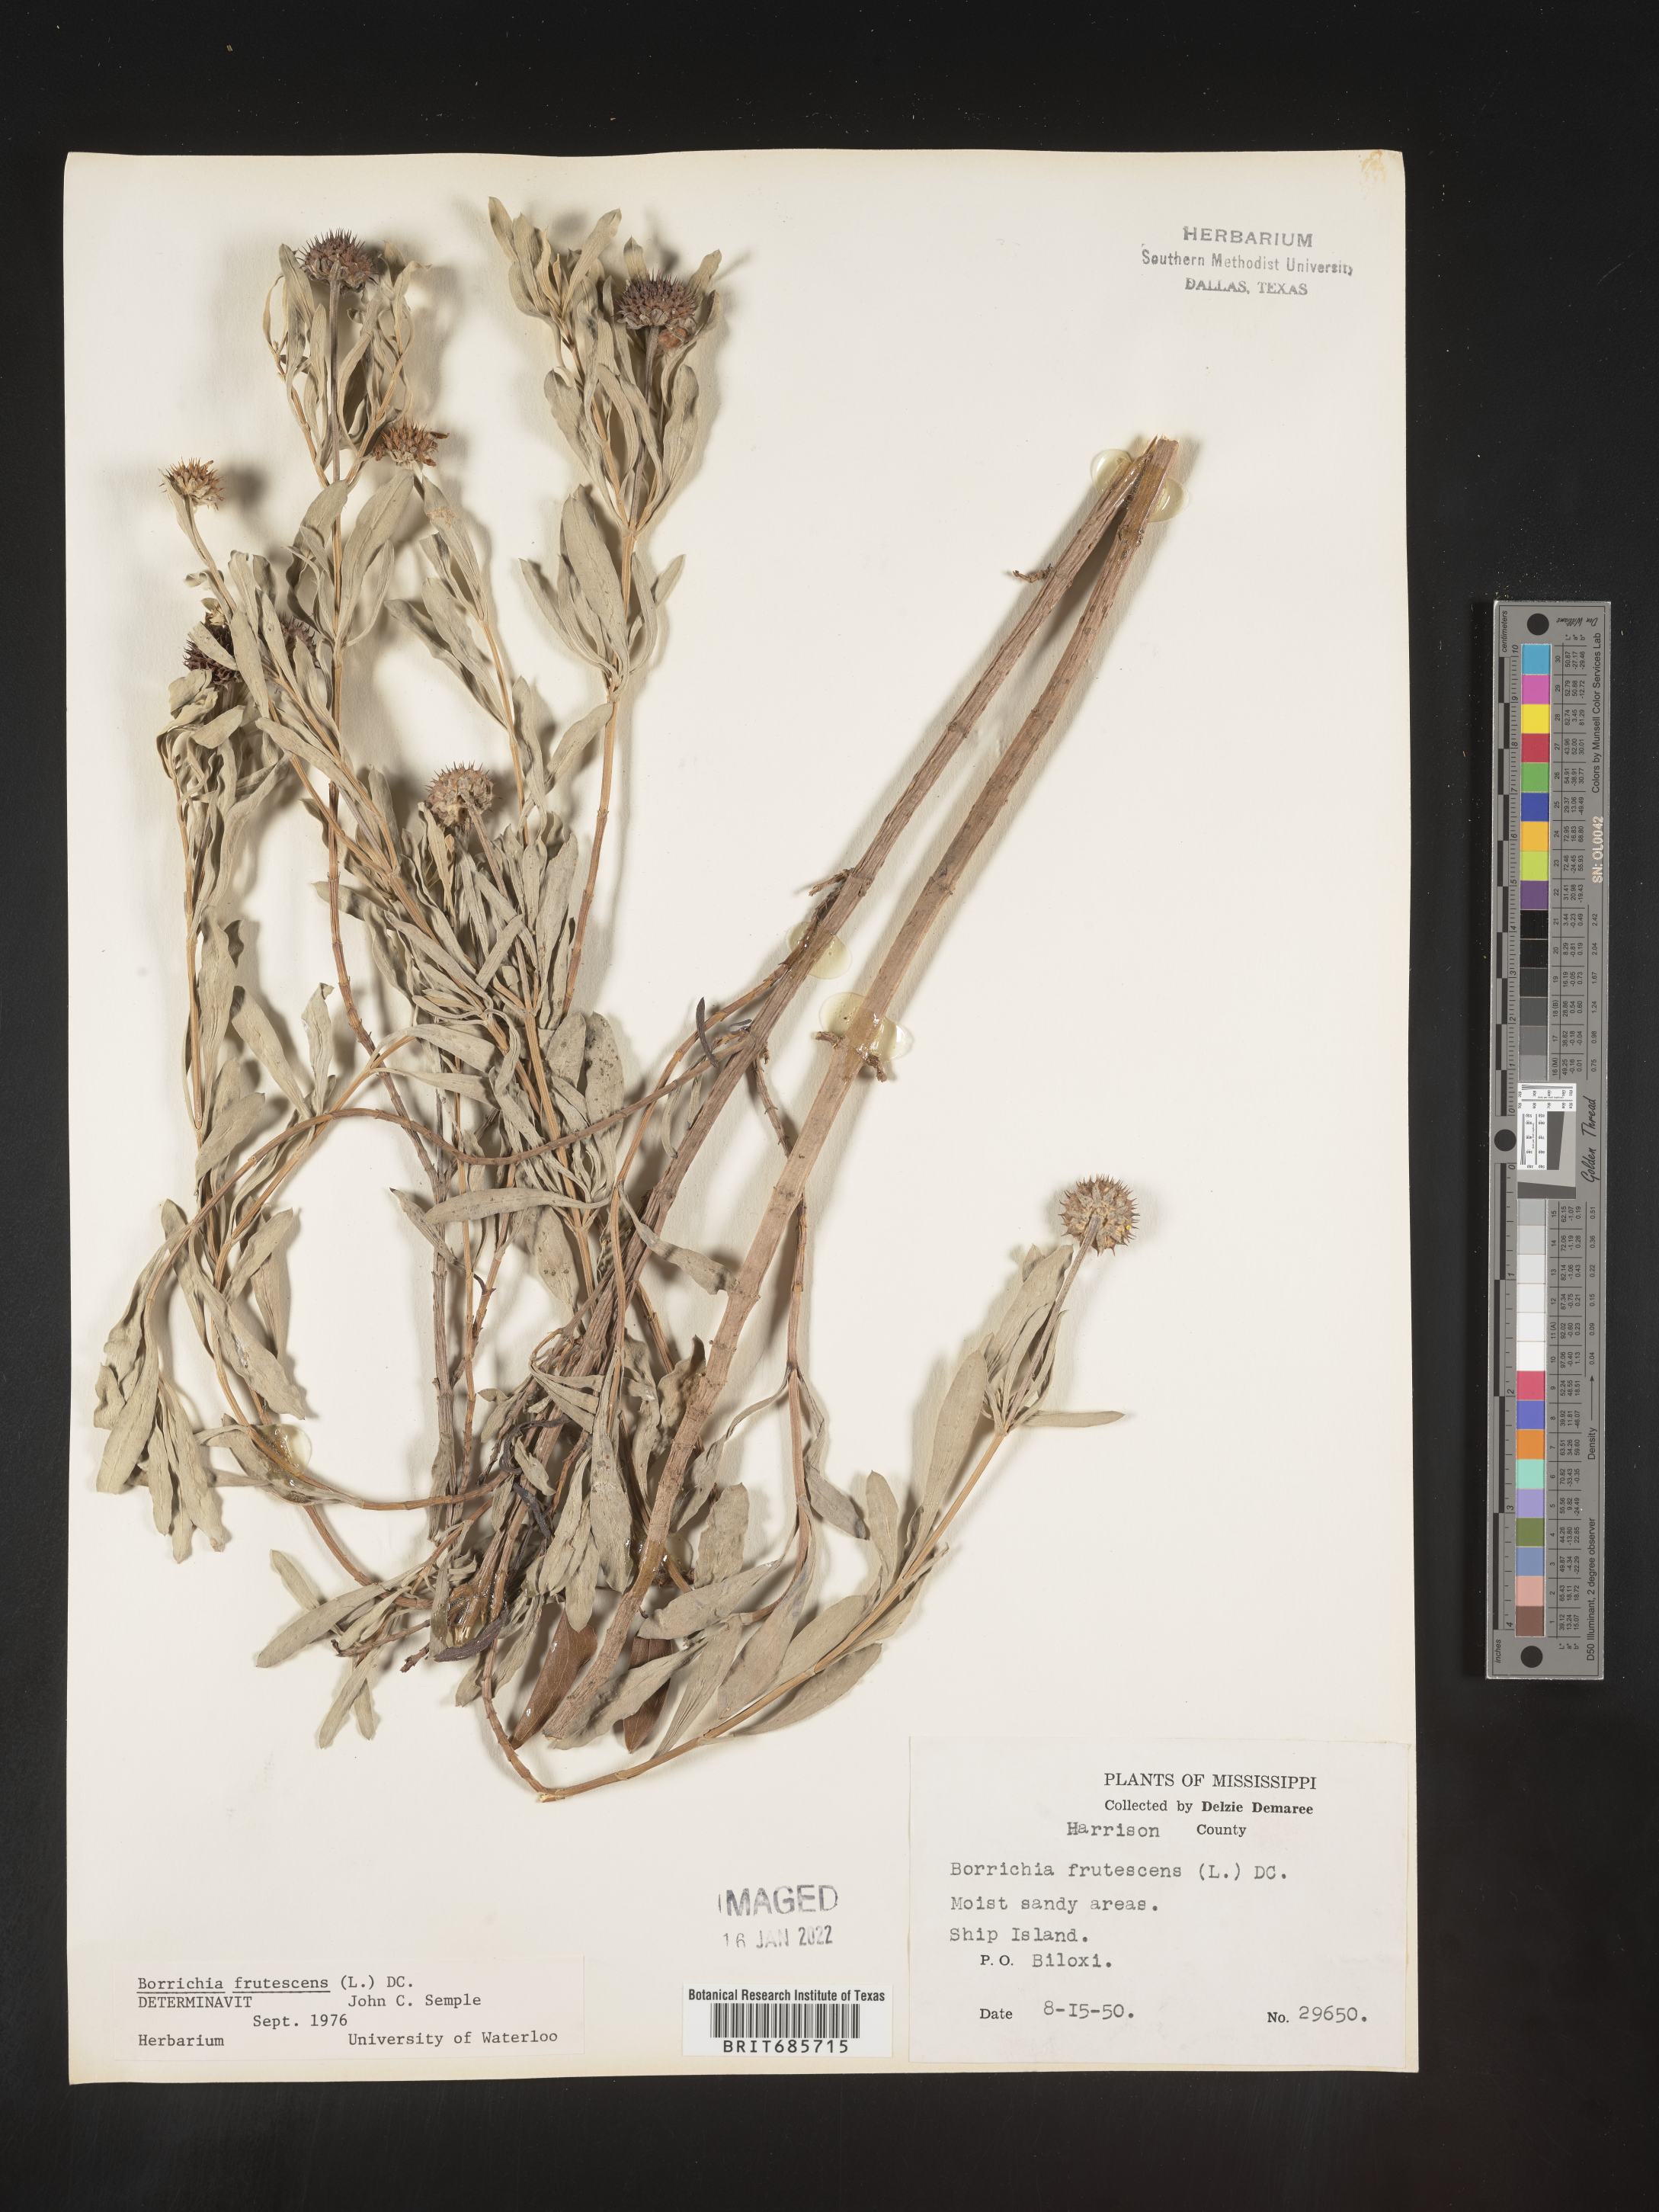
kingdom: Plantae
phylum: Tracheophyta
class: Magnoliopsida
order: Asterales
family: Asteraceae
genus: Borrichia
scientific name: Borrichia frutescens
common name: Sea oxeye
